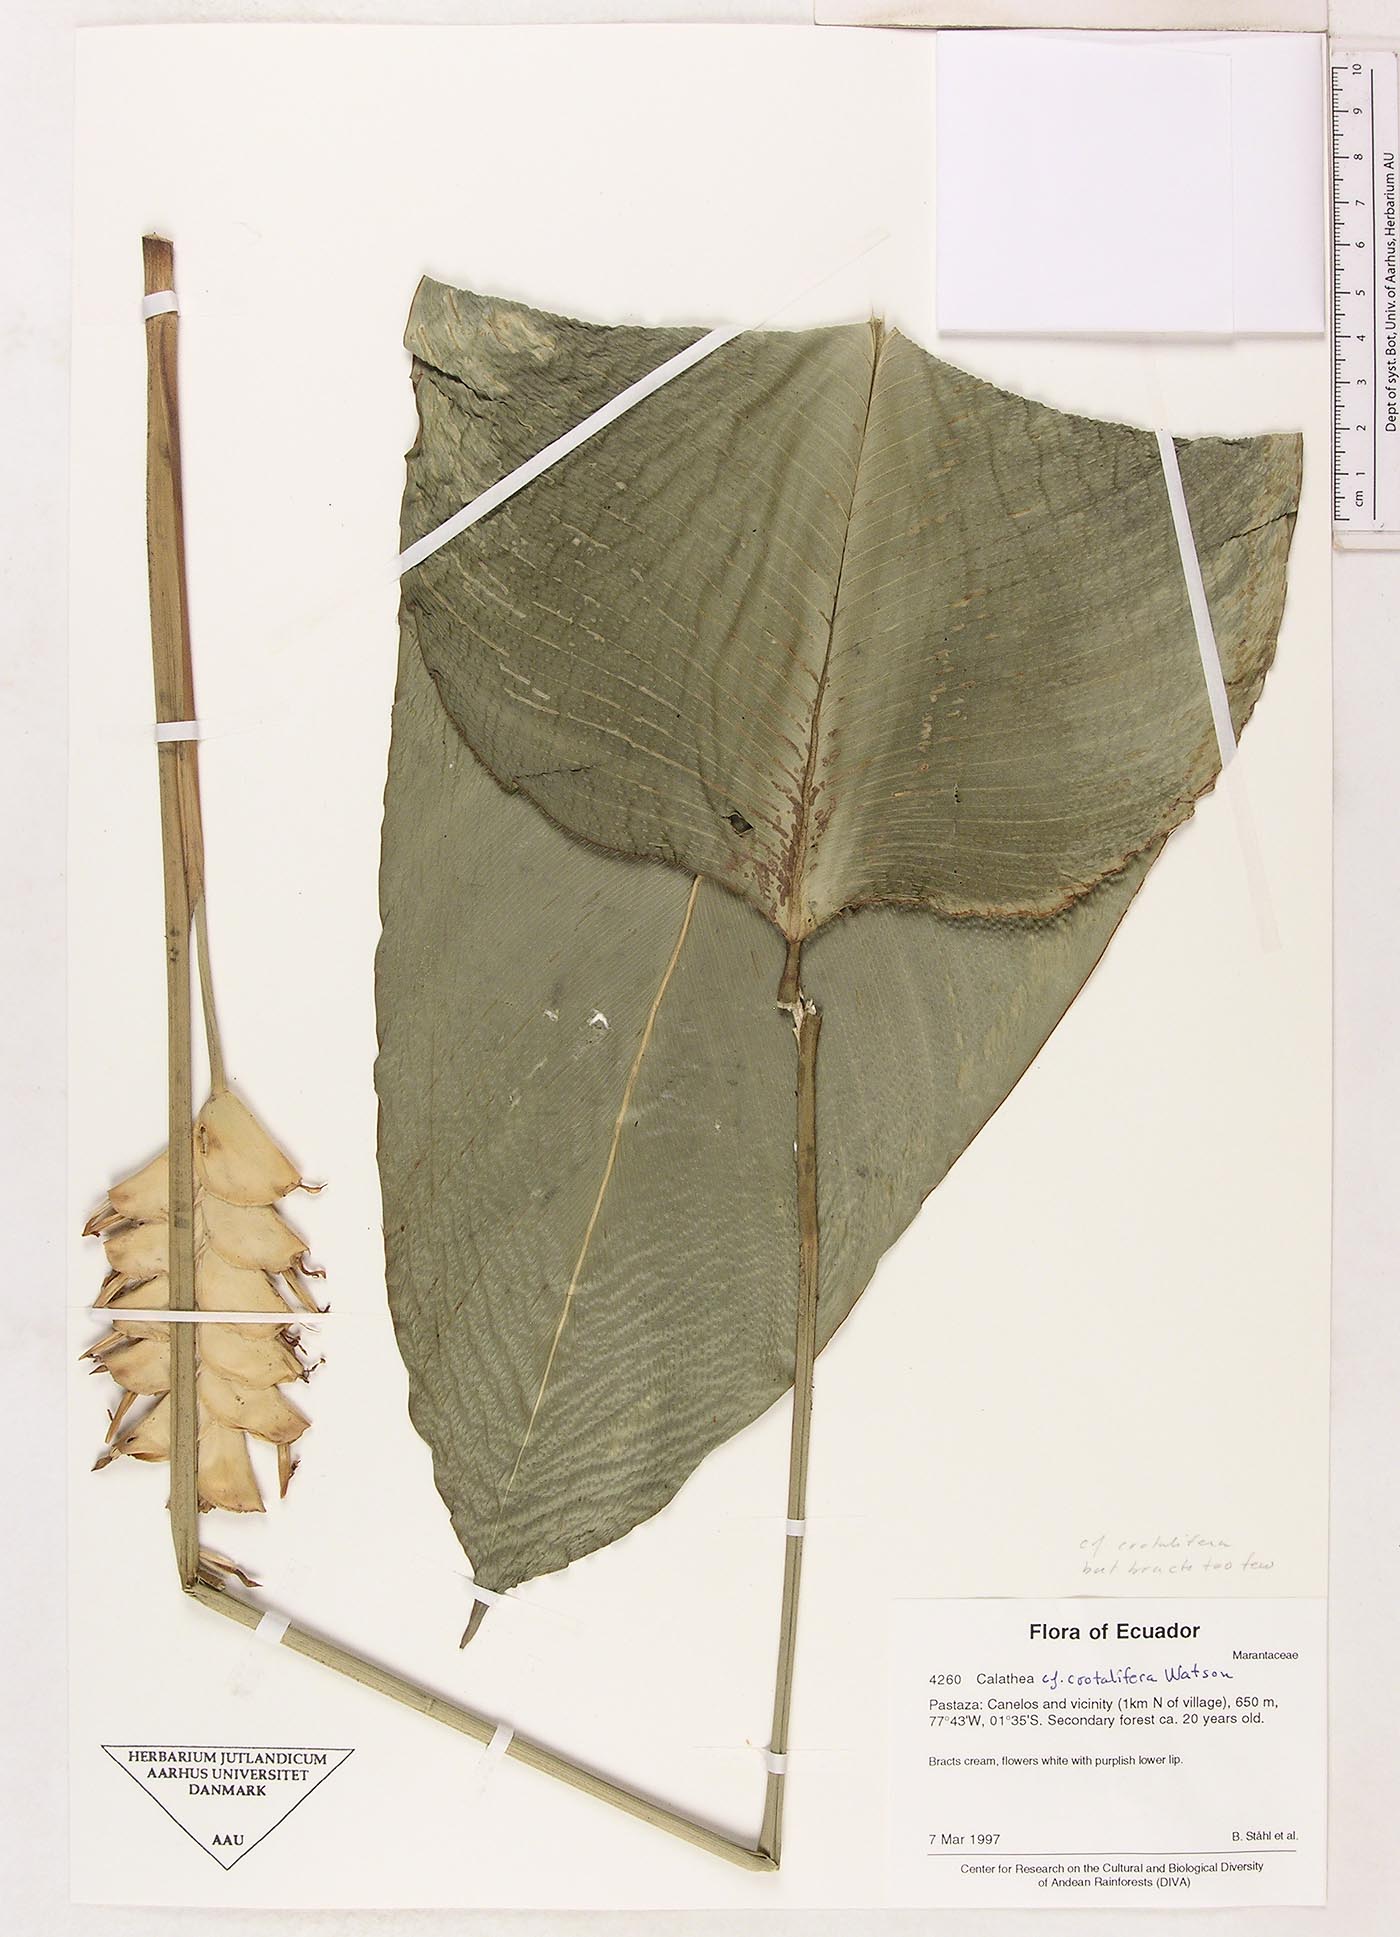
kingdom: Plantae
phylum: Tracheophyta
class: Liliopsida
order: Zingiberales
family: Marantaceae
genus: Calathea
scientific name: Calathea crotalifera
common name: Rattlesnake plant
